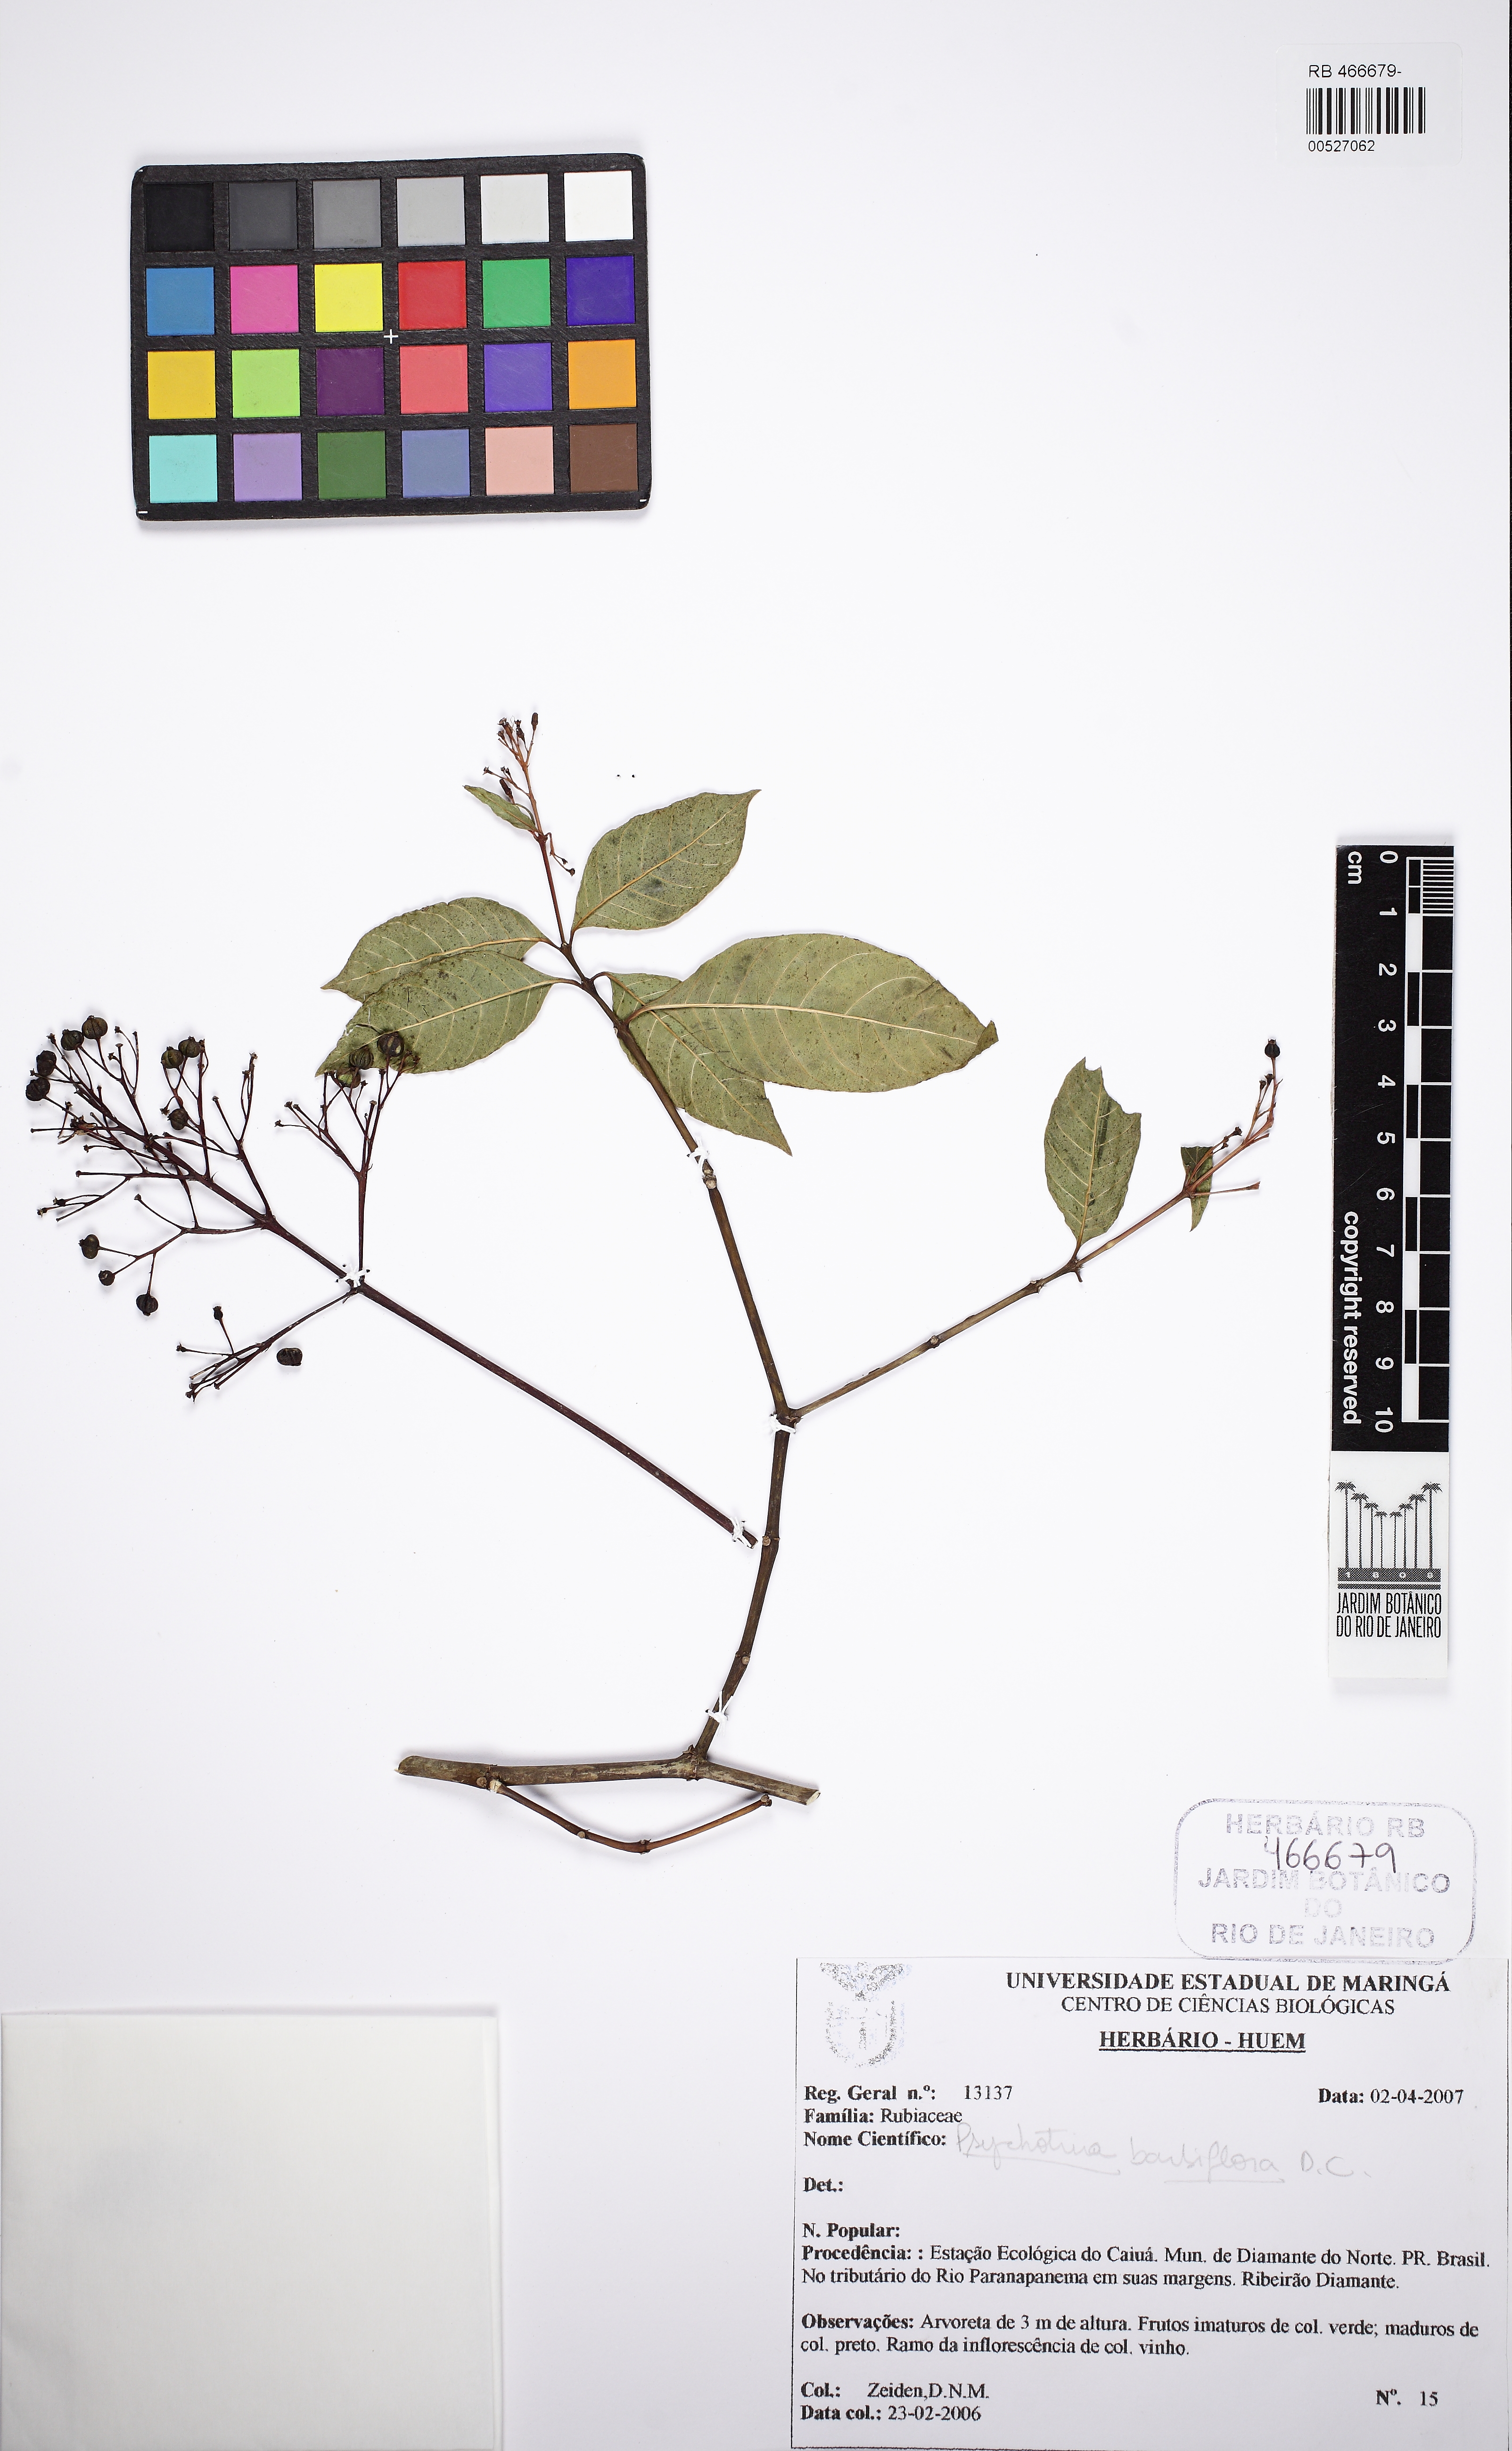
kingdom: Plantae
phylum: Tracheophyta
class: Magnoliopsida
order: Gentianales
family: Rubiaceae
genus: Palicourea
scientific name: Palicourea hoffmannseggiana
